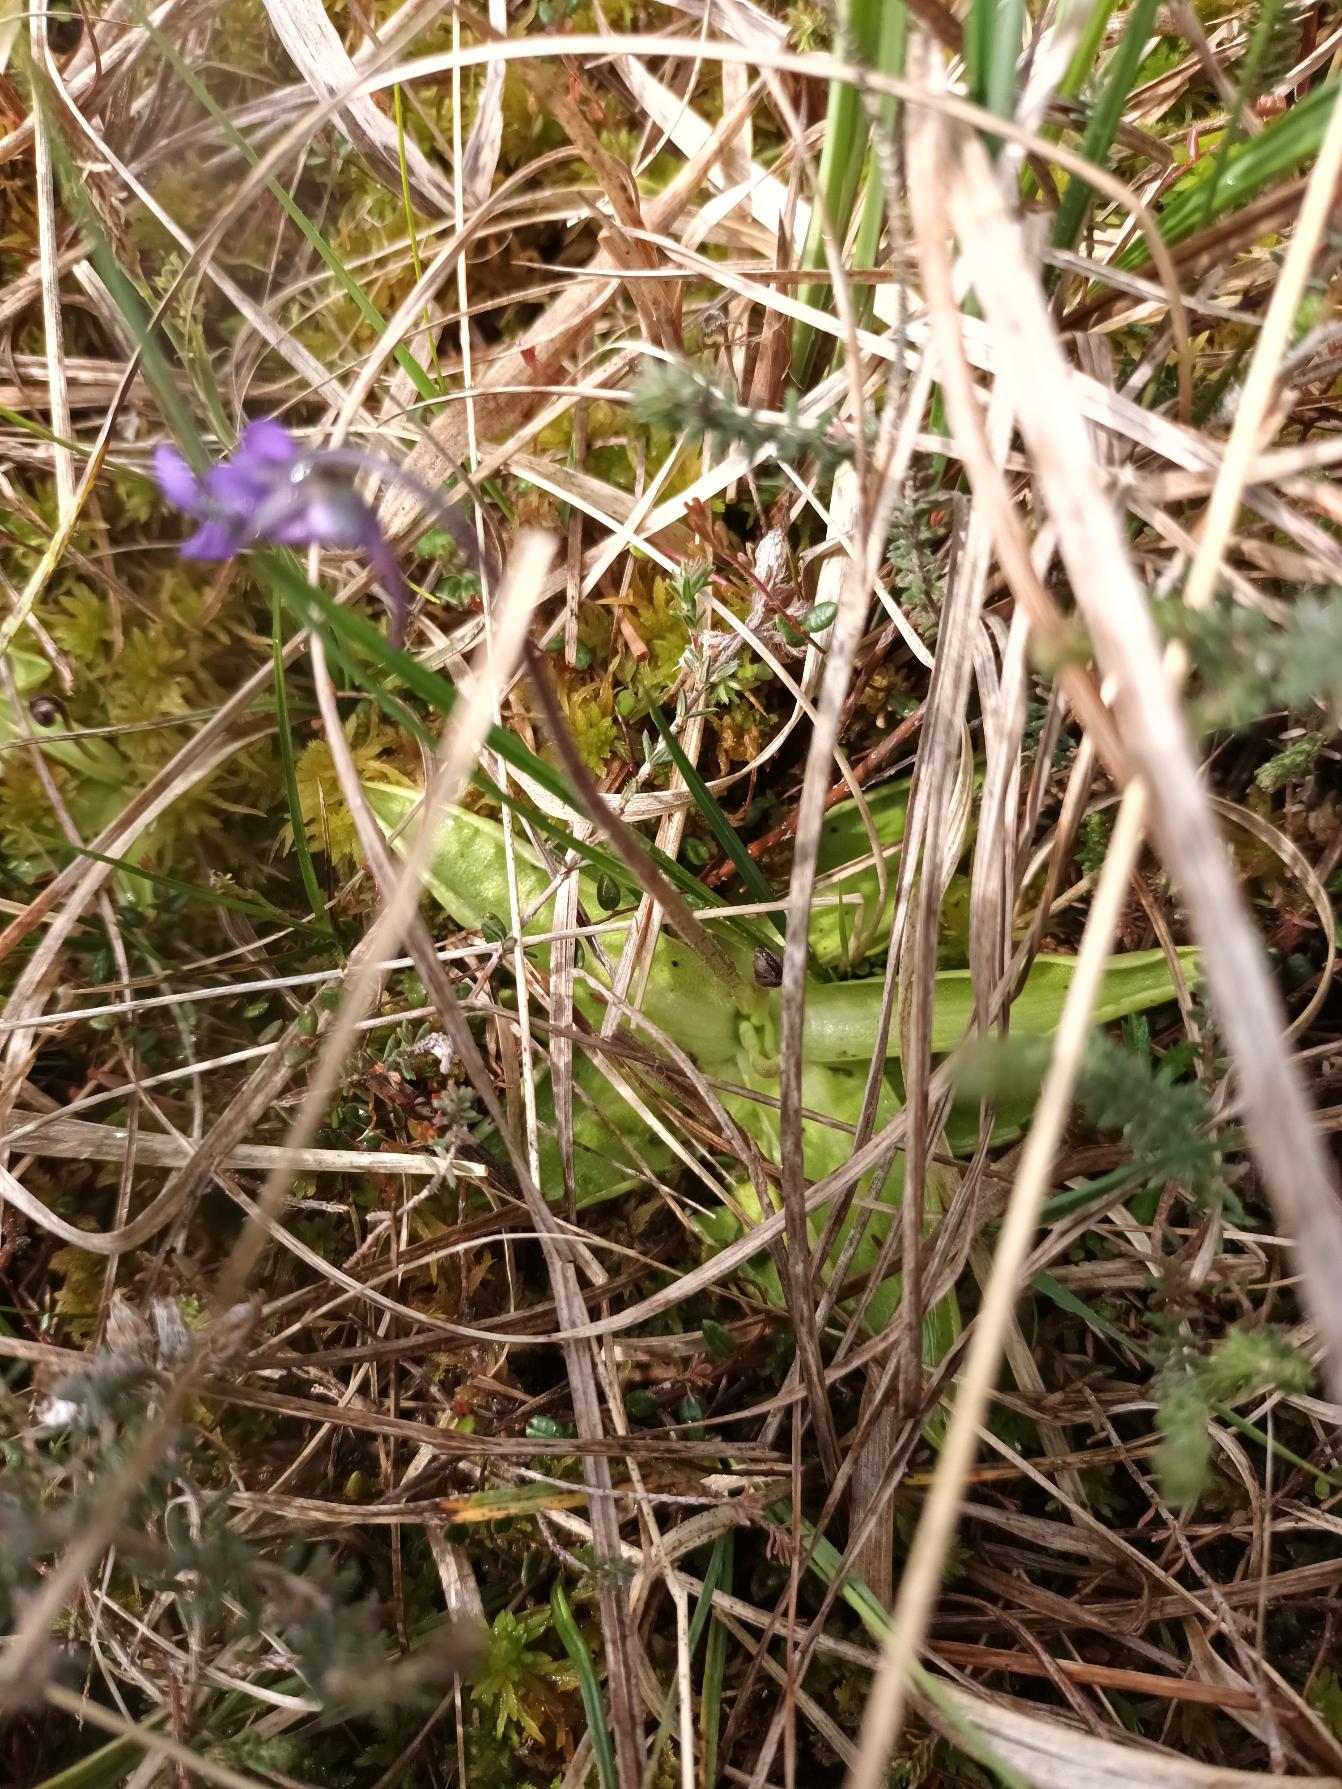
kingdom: Plantae
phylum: Tracheophyta
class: Magnoliopsida
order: Lamiales
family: Lentibulariaceae
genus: Pinguicula
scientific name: Pinguicula vulgaris
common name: Vibefedt
